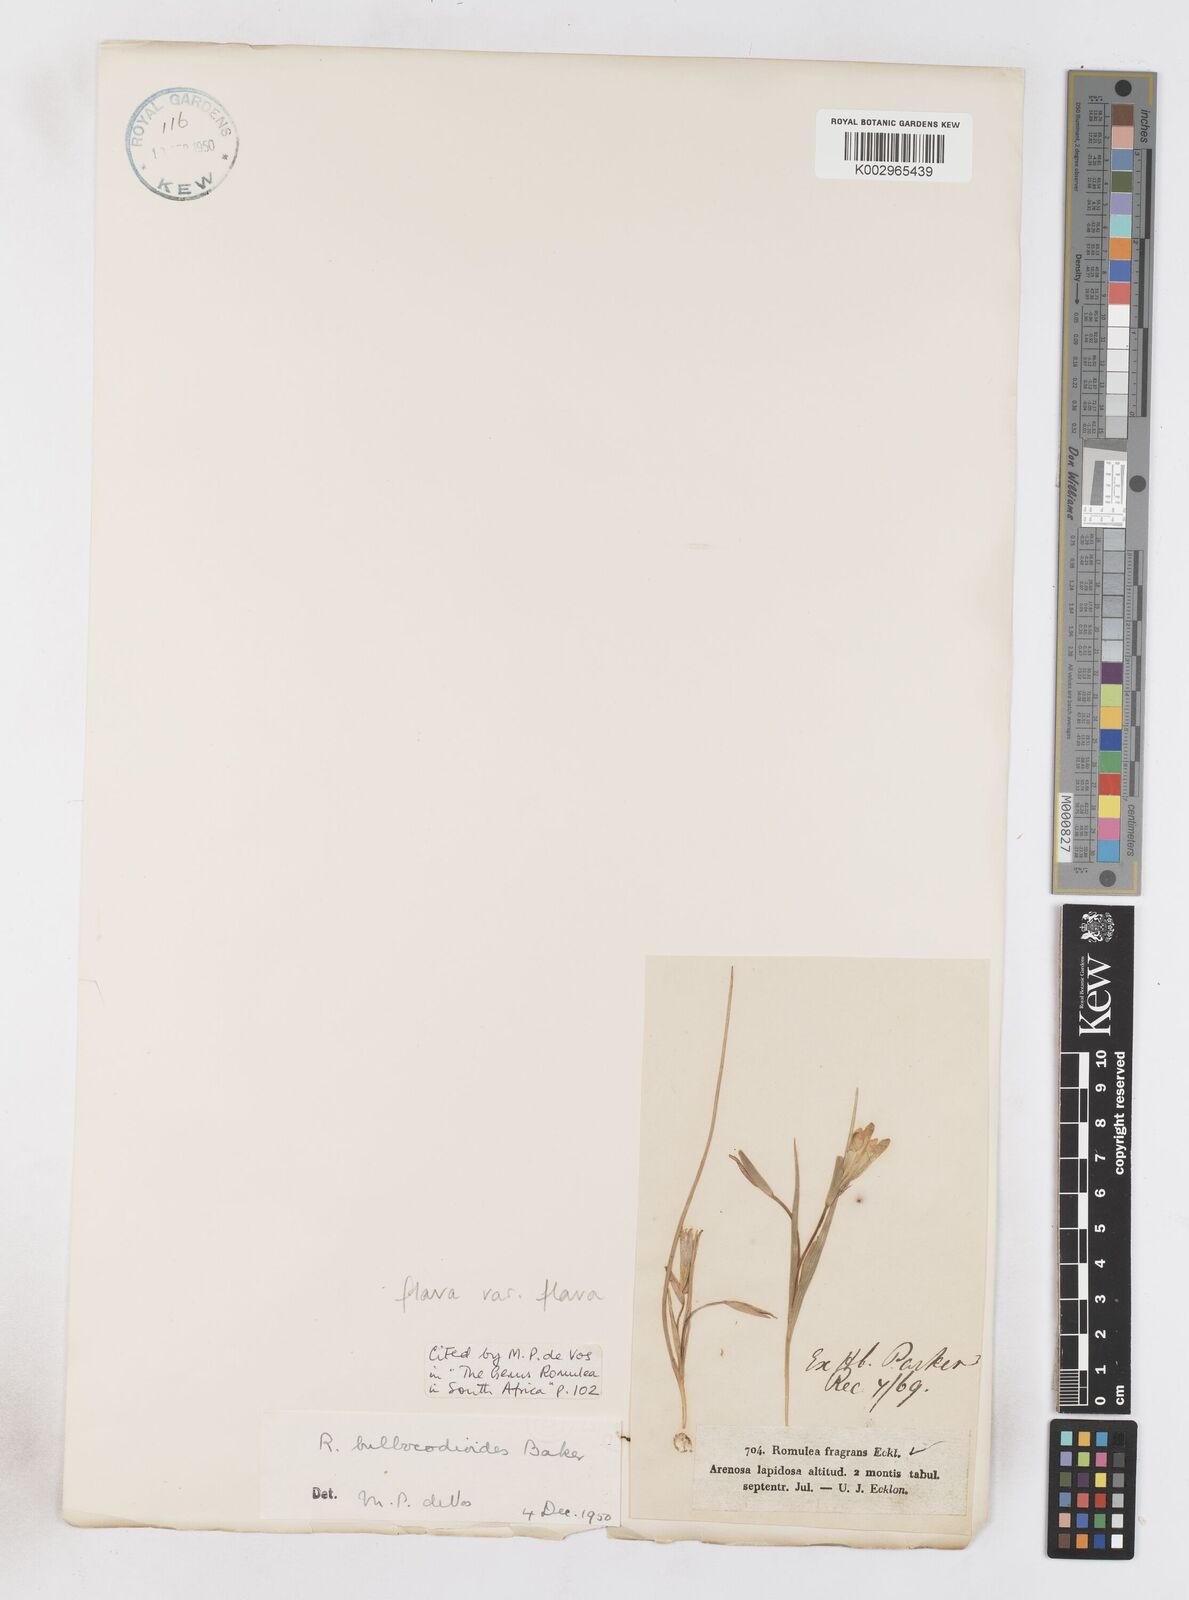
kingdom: Plantae
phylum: Tracheophyta
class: Liliopsida
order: Asparagales
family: Iridaceae
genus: Romulea
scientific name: Romulea flava
